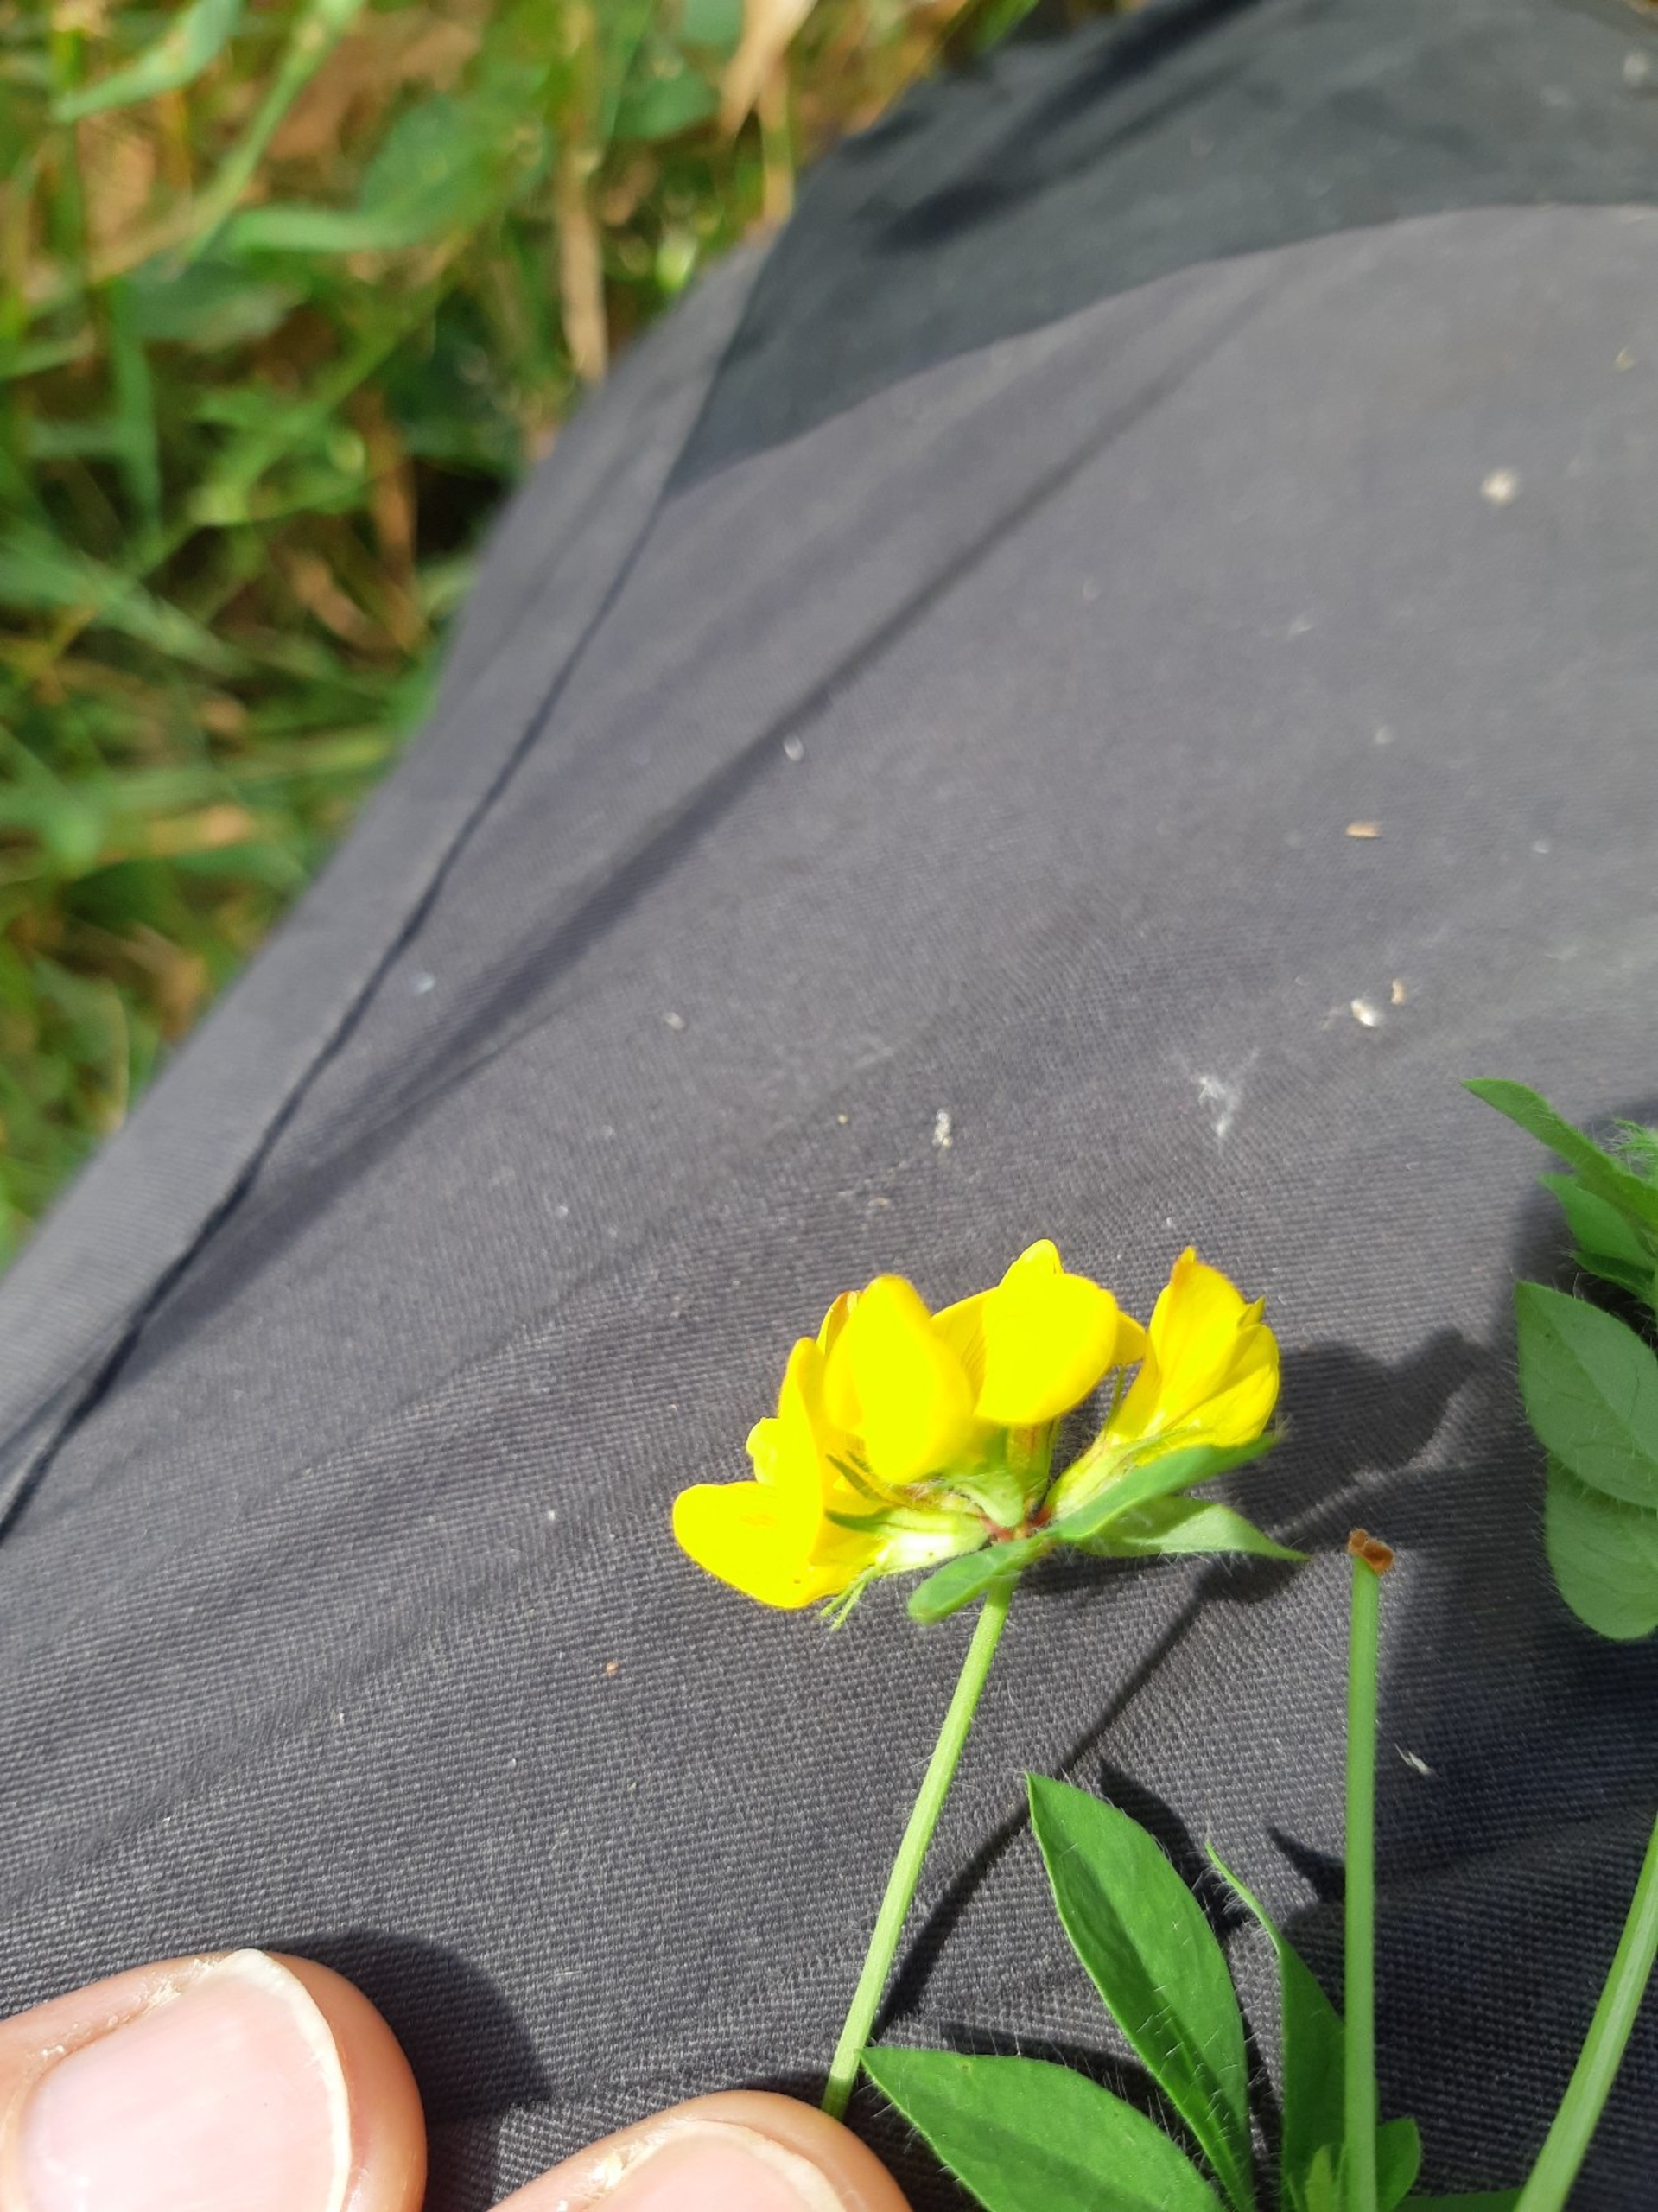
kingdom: Plantae
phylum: Tracheophyta
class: Magnoliopsida
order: Fabales
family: Fabaceae
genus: Lotus
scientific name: Lotus pedunculatus
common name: Sump-kællingetand
